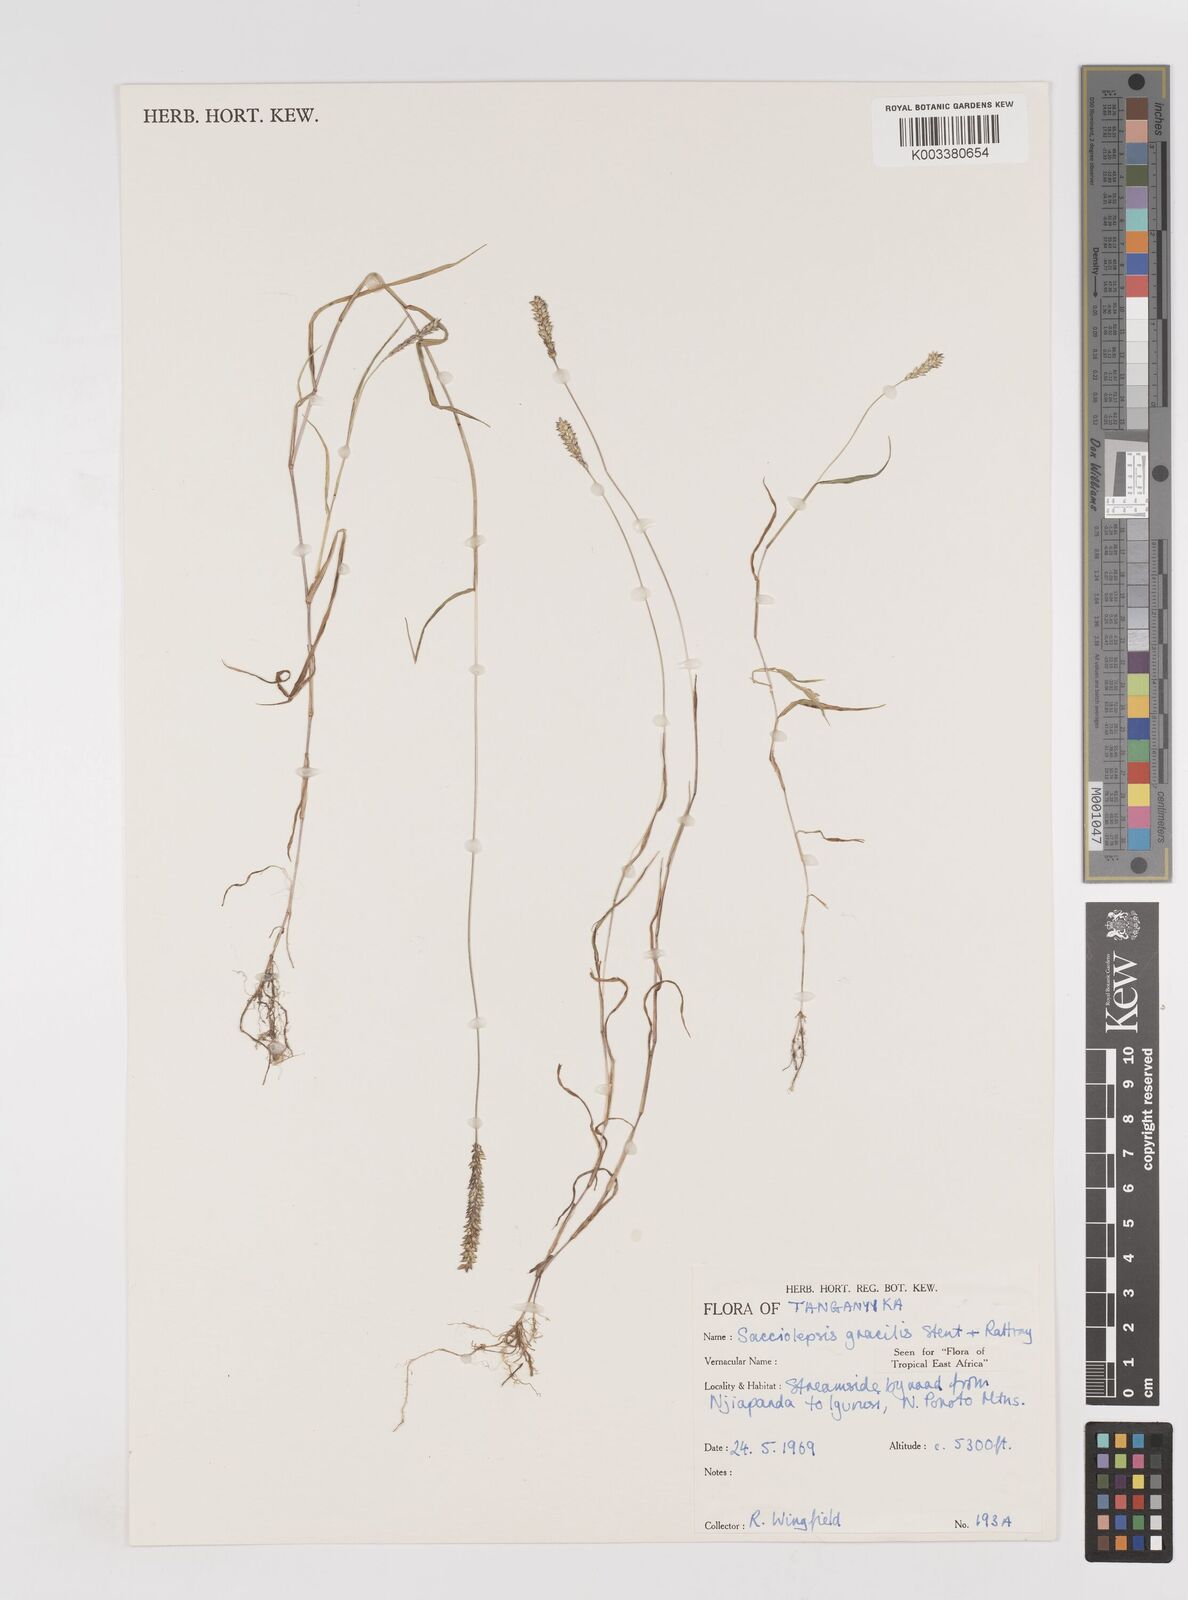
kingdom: Plantae
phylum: Tracheophyta
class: Liliopsida
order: Poales
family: Poaceae
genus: Sacciolepis
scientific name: Sacciolepis indica
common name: Glenwoodgrass
